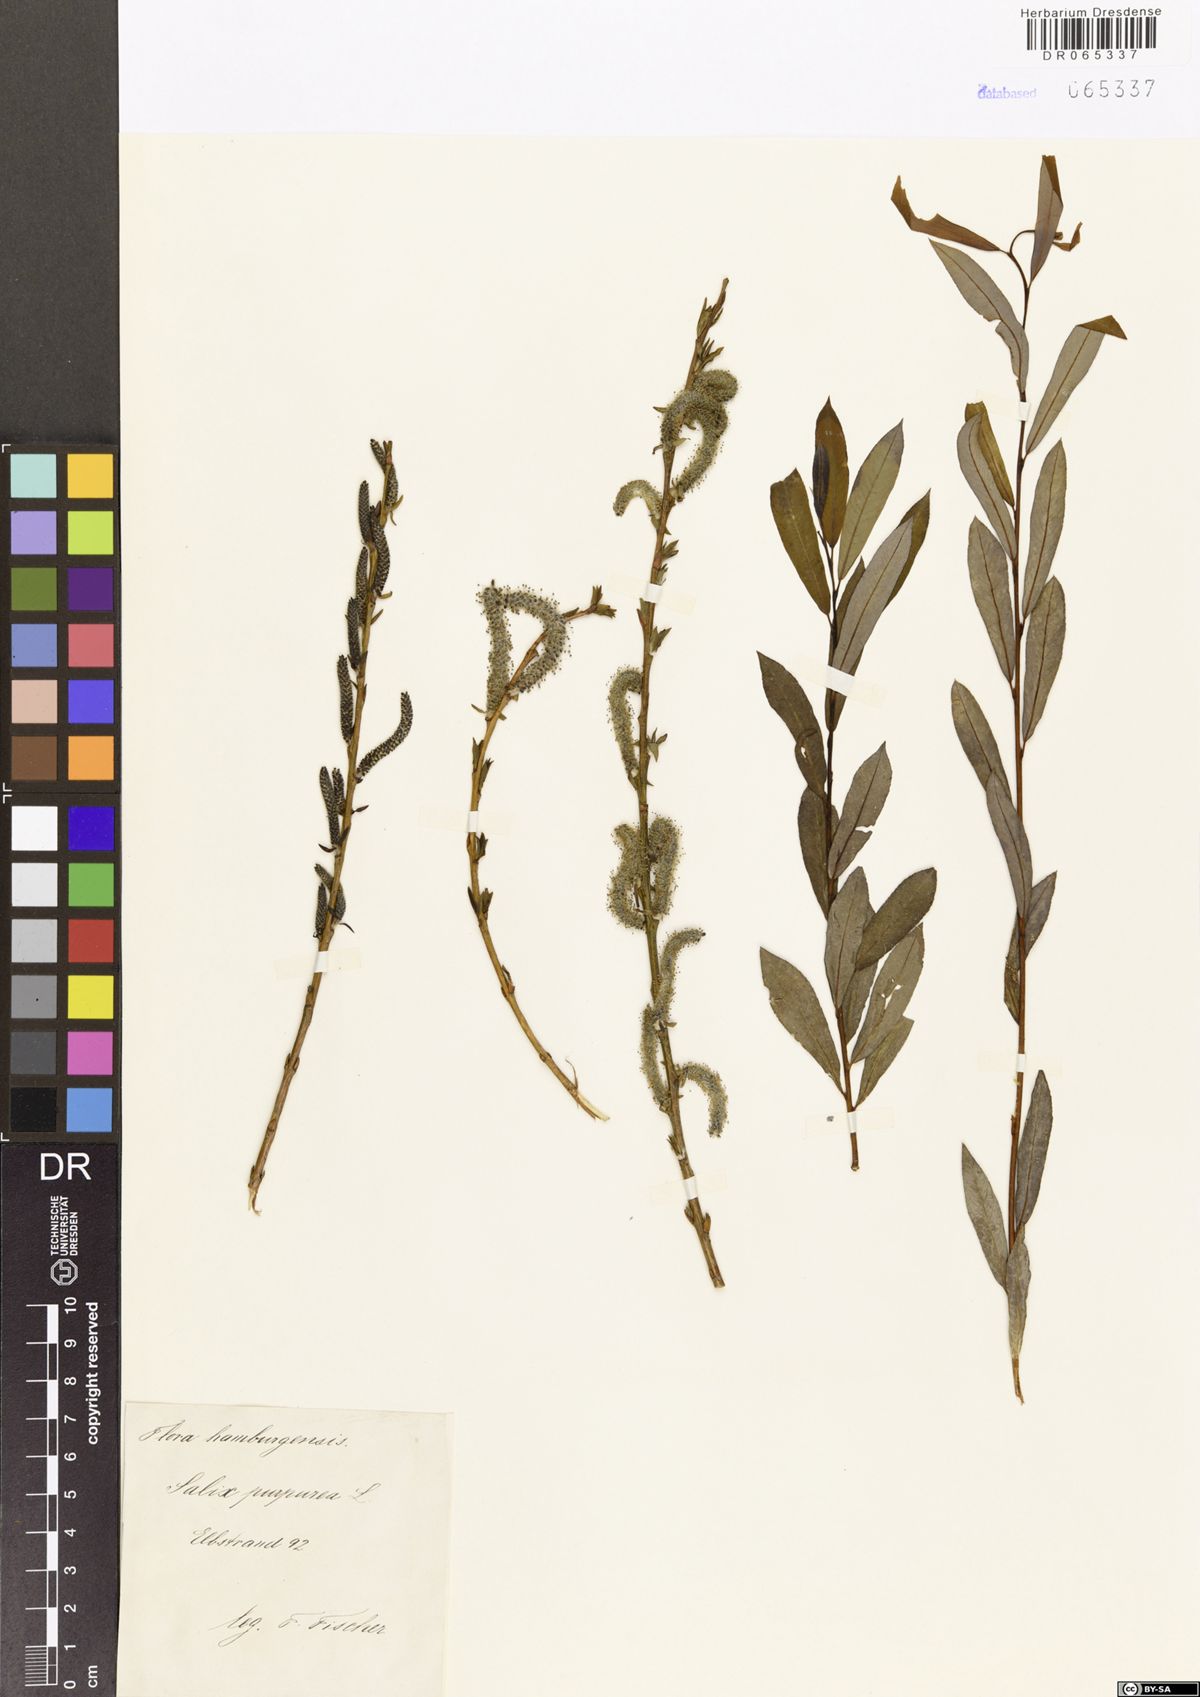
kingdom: Plantae
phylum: Tracheophyta
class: Magnoliopsida
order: Malpighiales
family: Salicaceae
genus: Salix
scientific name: Salix purpurea
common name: Purple willow
